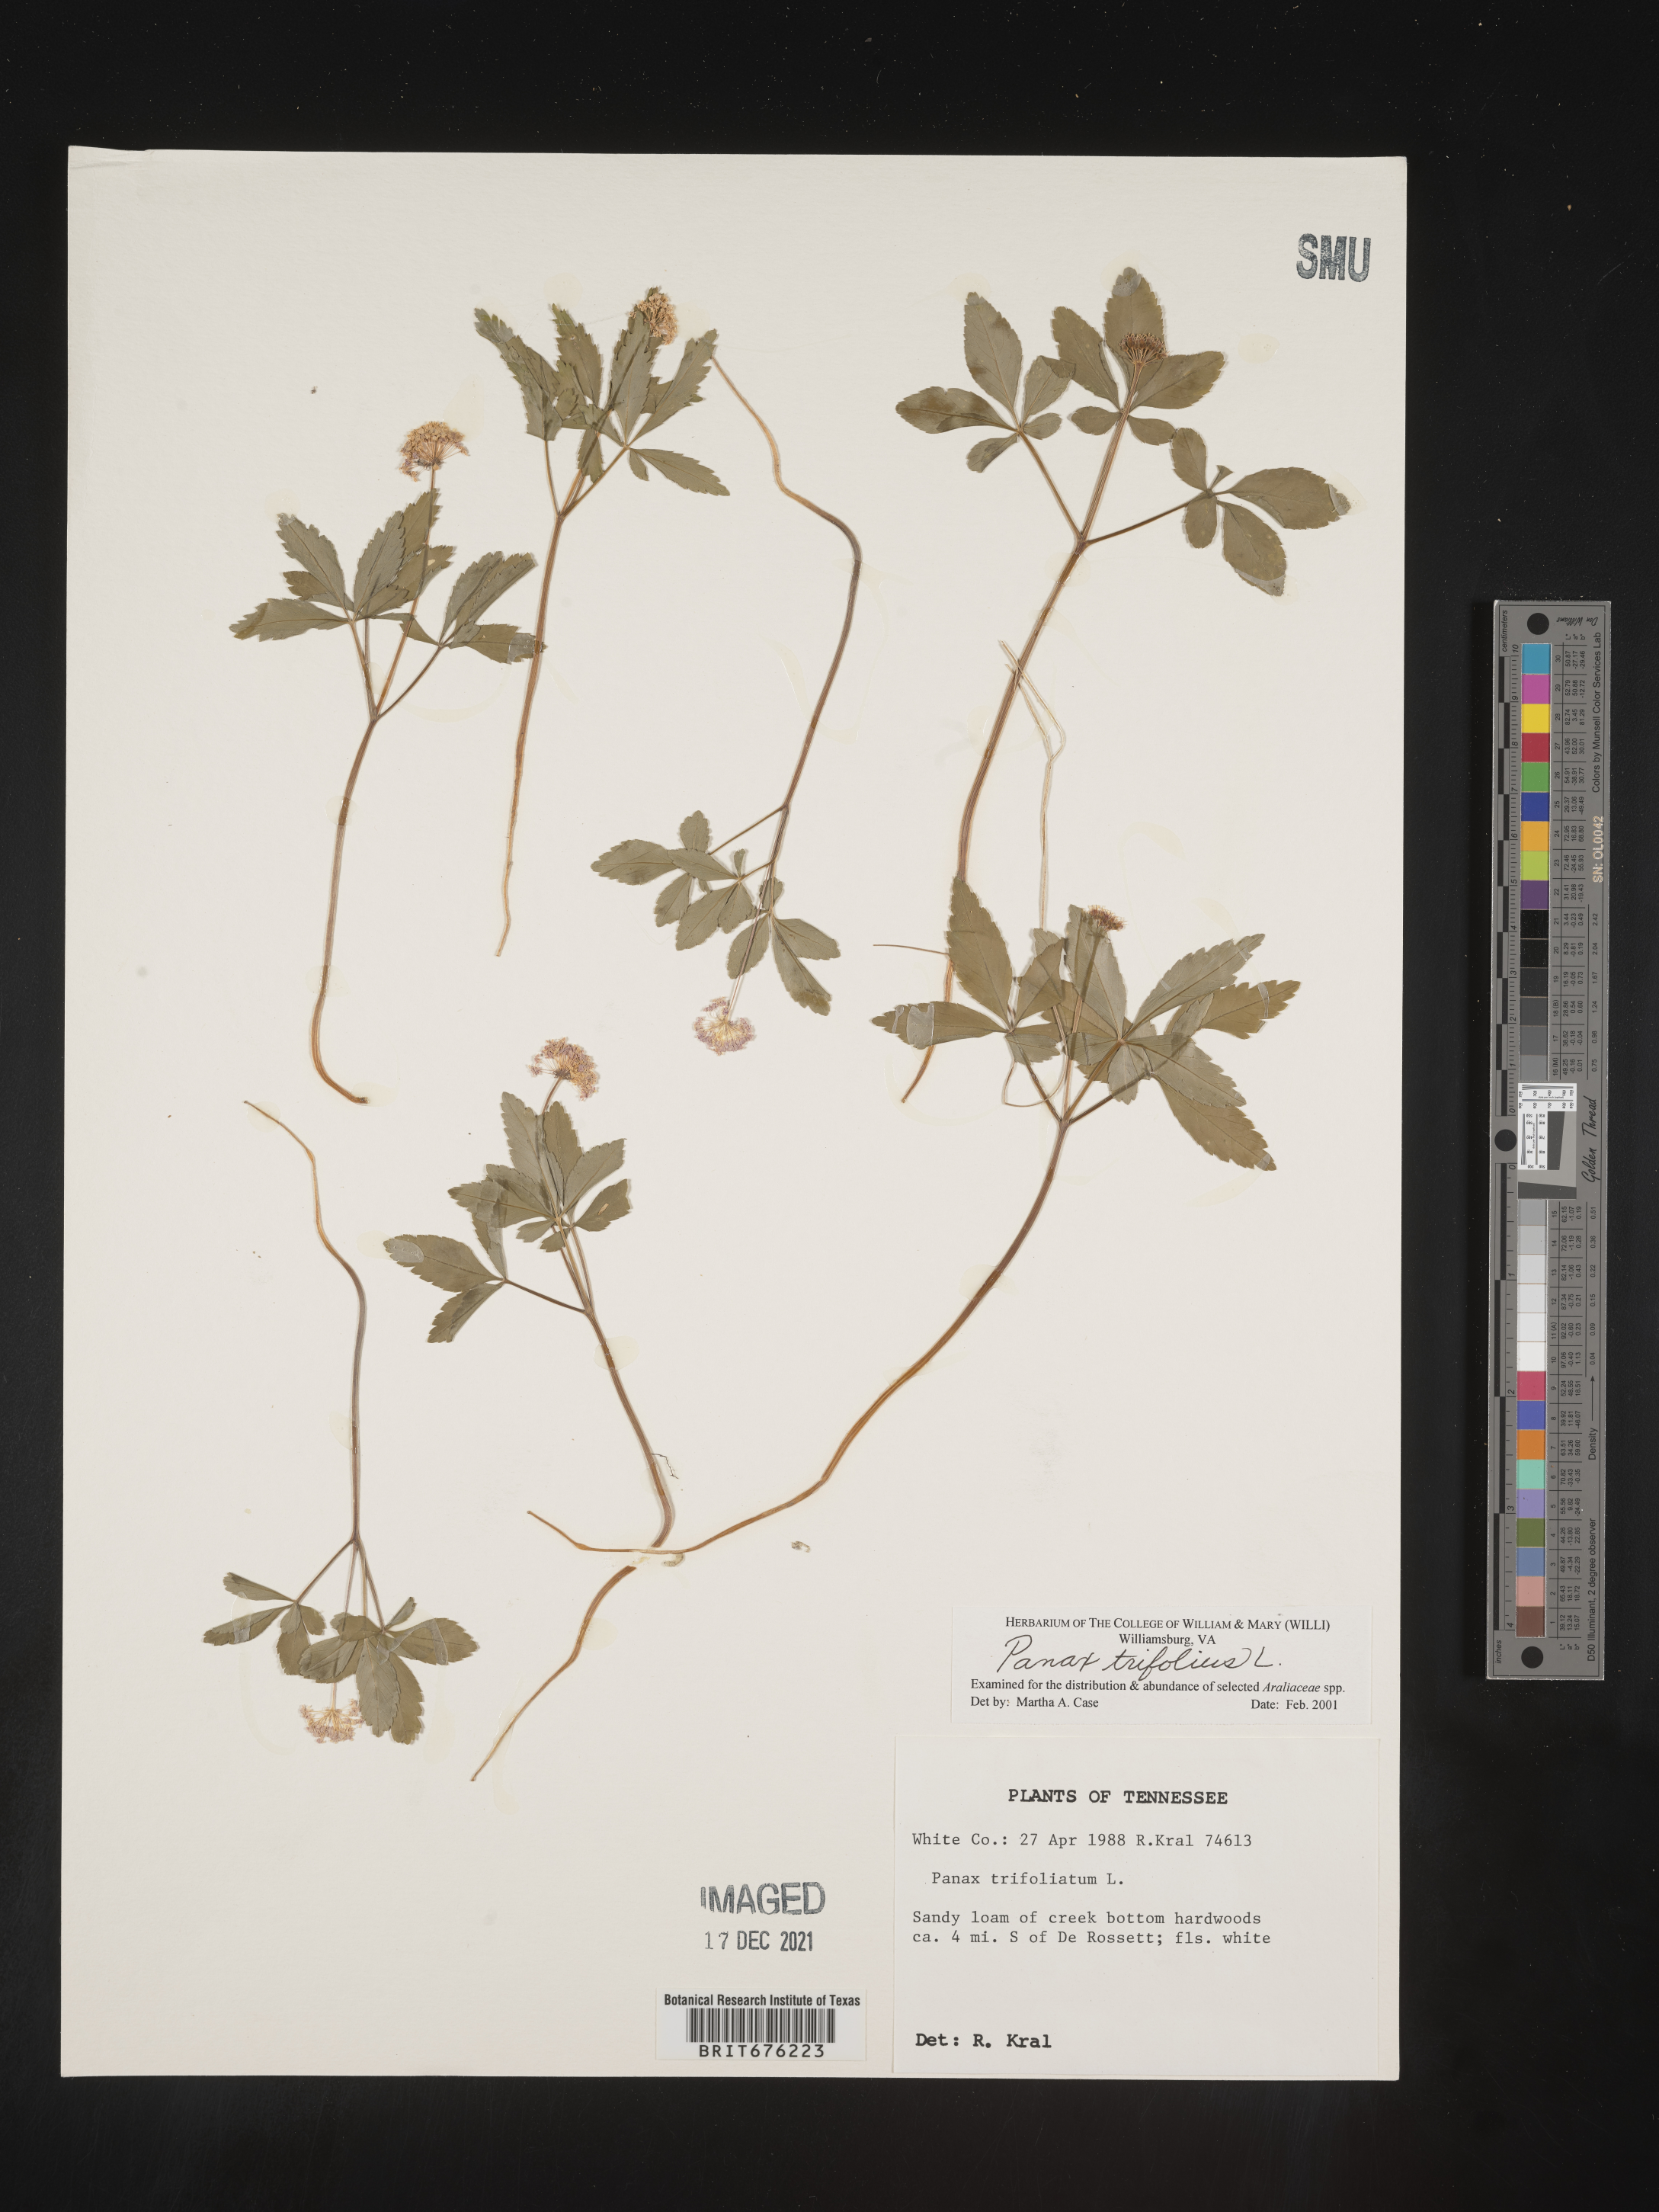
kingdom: Plantae
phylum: Tracheophyta
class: Magnoliopsida
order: Apiales
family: Araliaceae
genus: Panax
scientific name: Panax trifolius
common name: Dwarf ginseng
